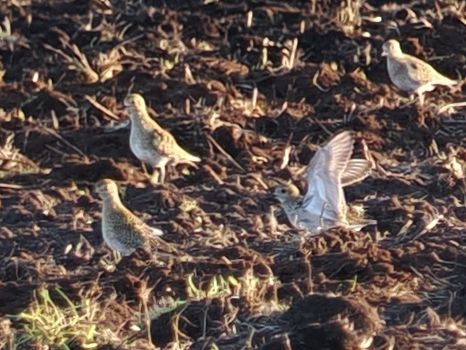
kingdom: Animalia
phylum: Chordata
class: Aves
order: Charadriiformes
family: Charadriidae
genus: Pluvialis
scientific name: Pluvialis apricaria
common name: Hjejle
